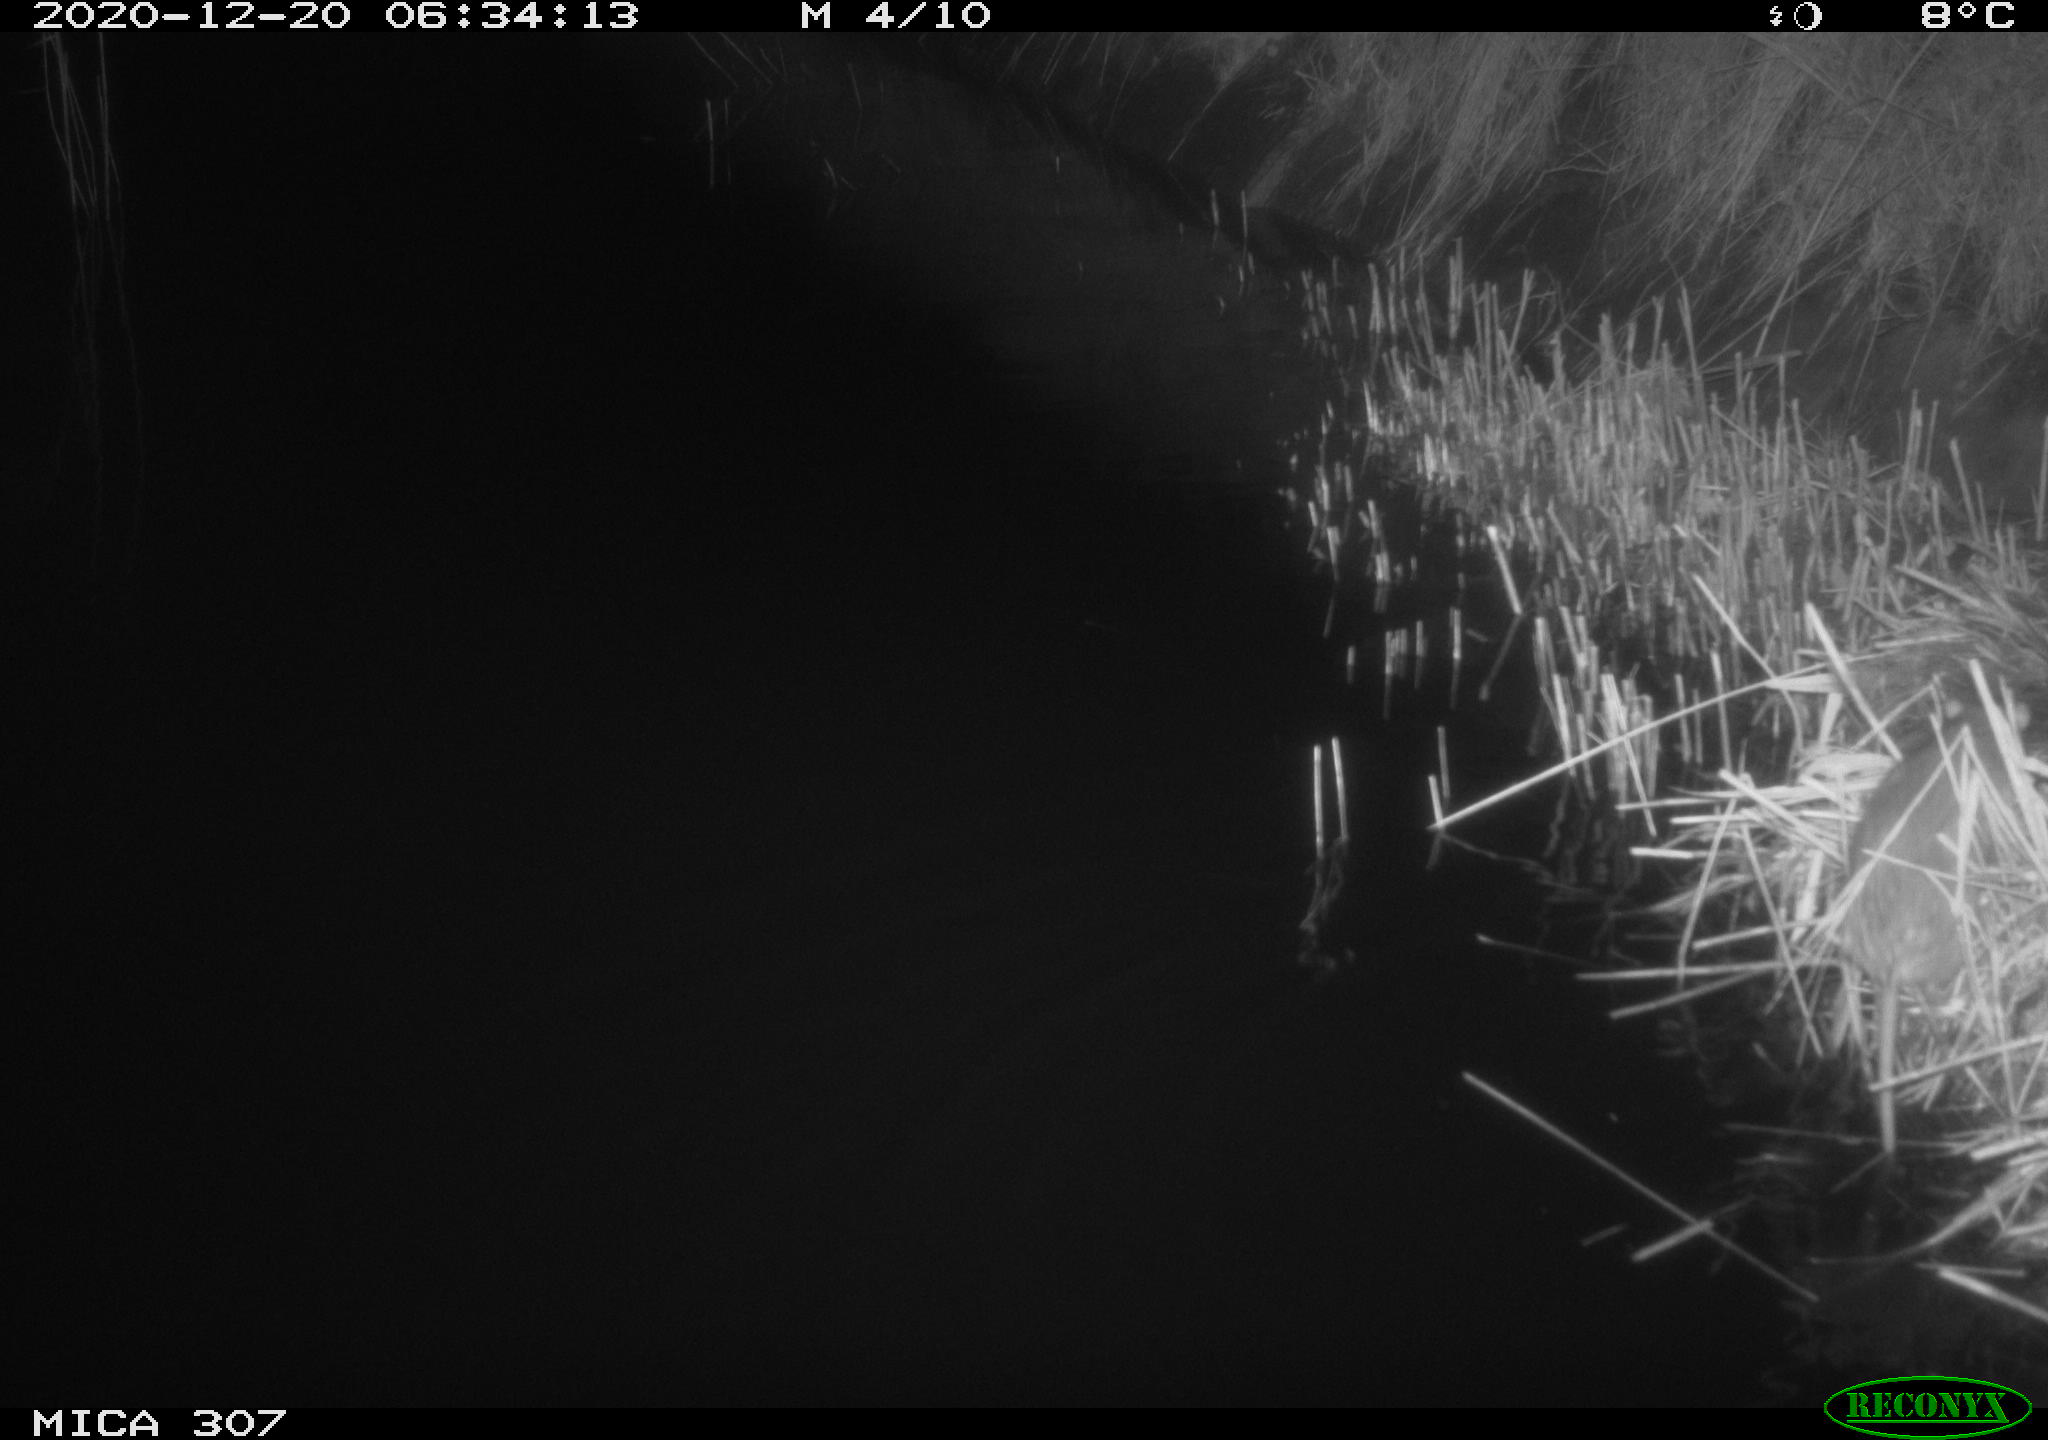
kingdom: Animalia
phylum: Chordata
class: Mammalia
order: Rodentia
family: Muridae
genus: Rattus
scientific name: Rattus norvegicus
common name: Brown rat
